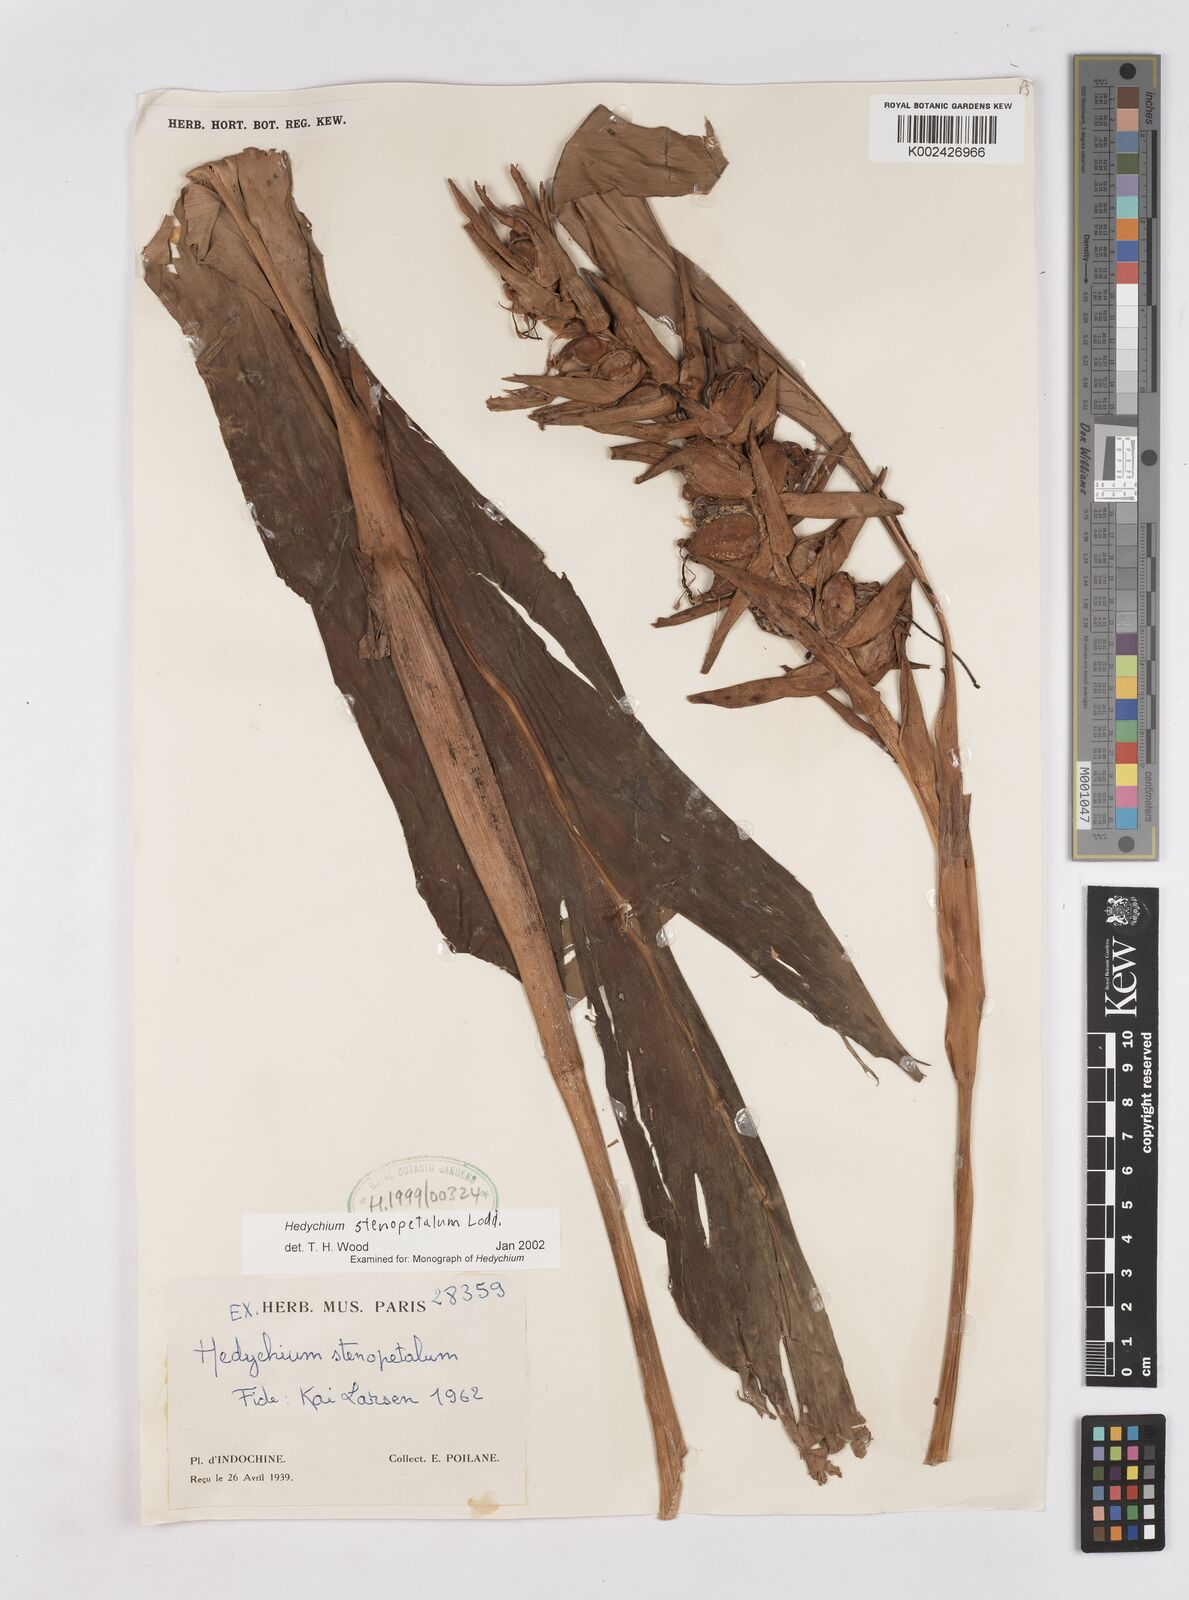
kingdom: Plantae
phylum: Tracheophyta
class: Liliopsida
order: Zingiberales
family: Zingiberaceae
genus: Hedychium
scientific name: Hedychium stenopetalum
